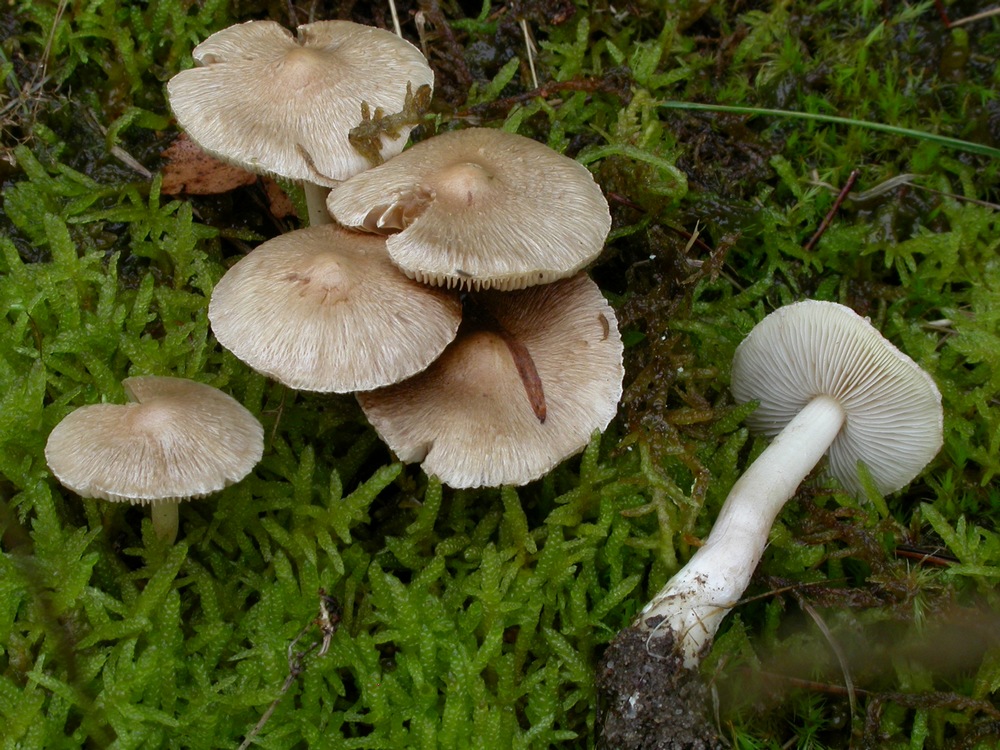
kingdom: Fungi
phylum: Basidiomycota
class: Agaricomycetes
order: Agaricales
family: Inocybaceae
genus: Inocybe
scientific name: Inocybe sindonia
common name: bleg trævlhat
